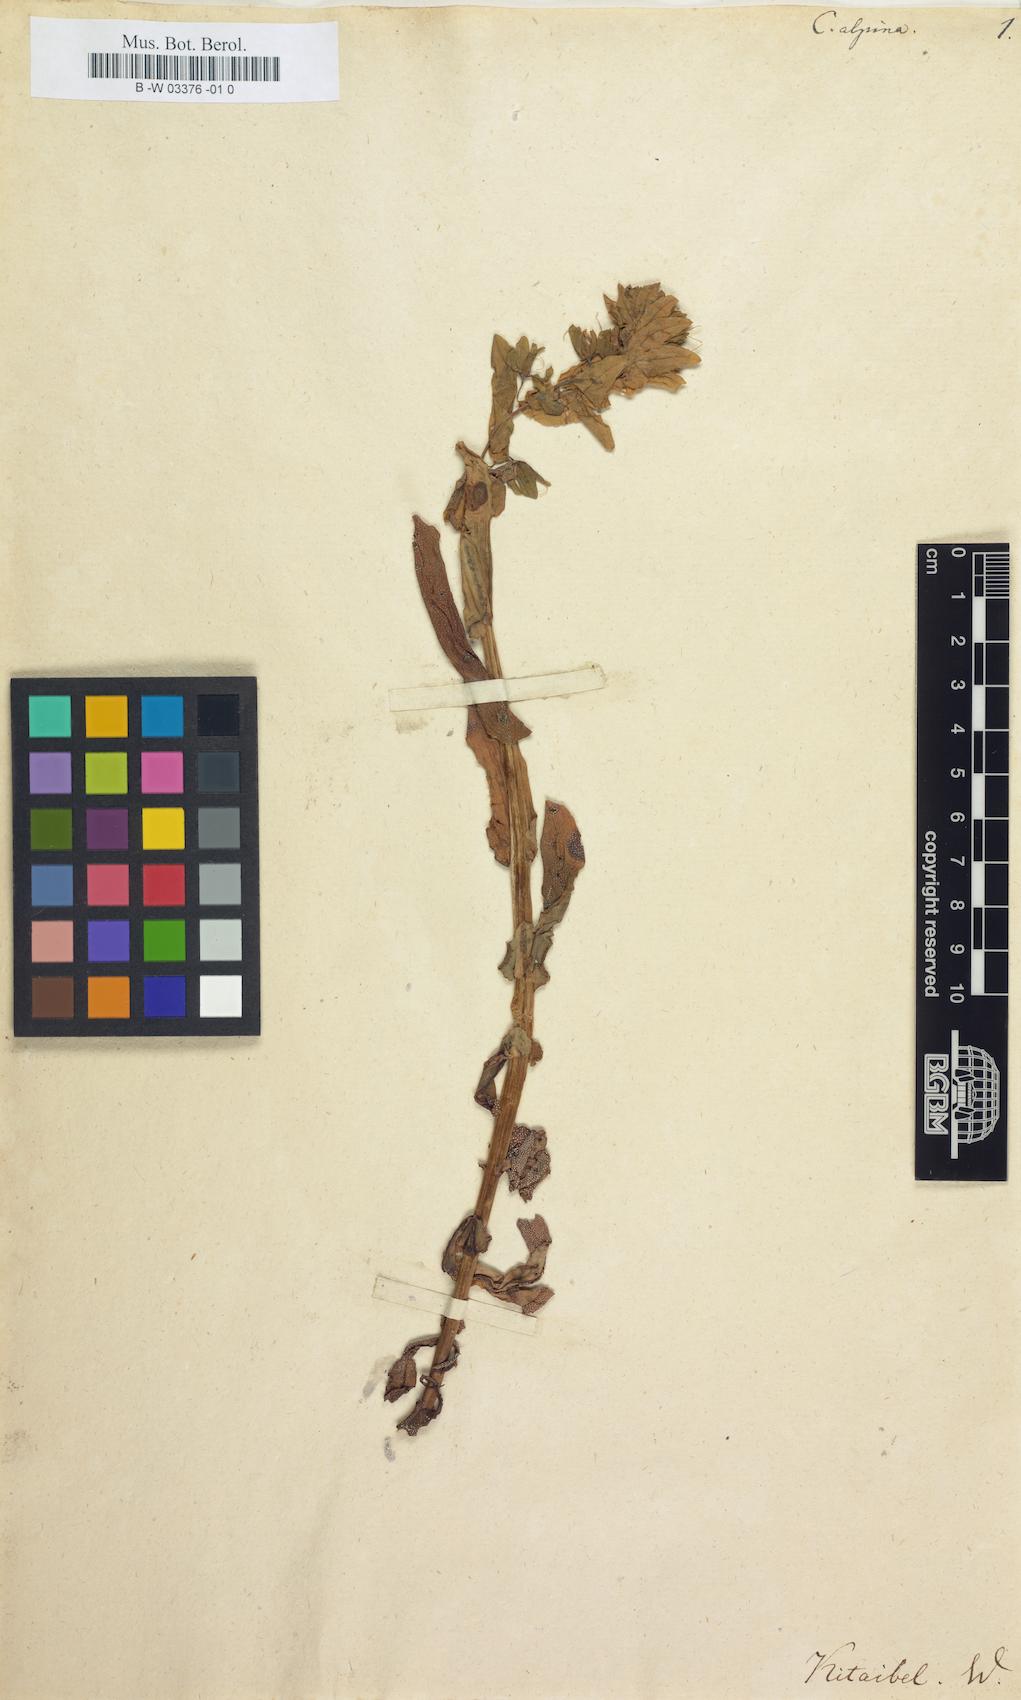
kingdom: Plantae
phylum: Tracheophyta
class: Magnoliopsida
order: Boraginales
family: Boraginaceae
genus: Cerinthe
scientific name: Cerinthe
